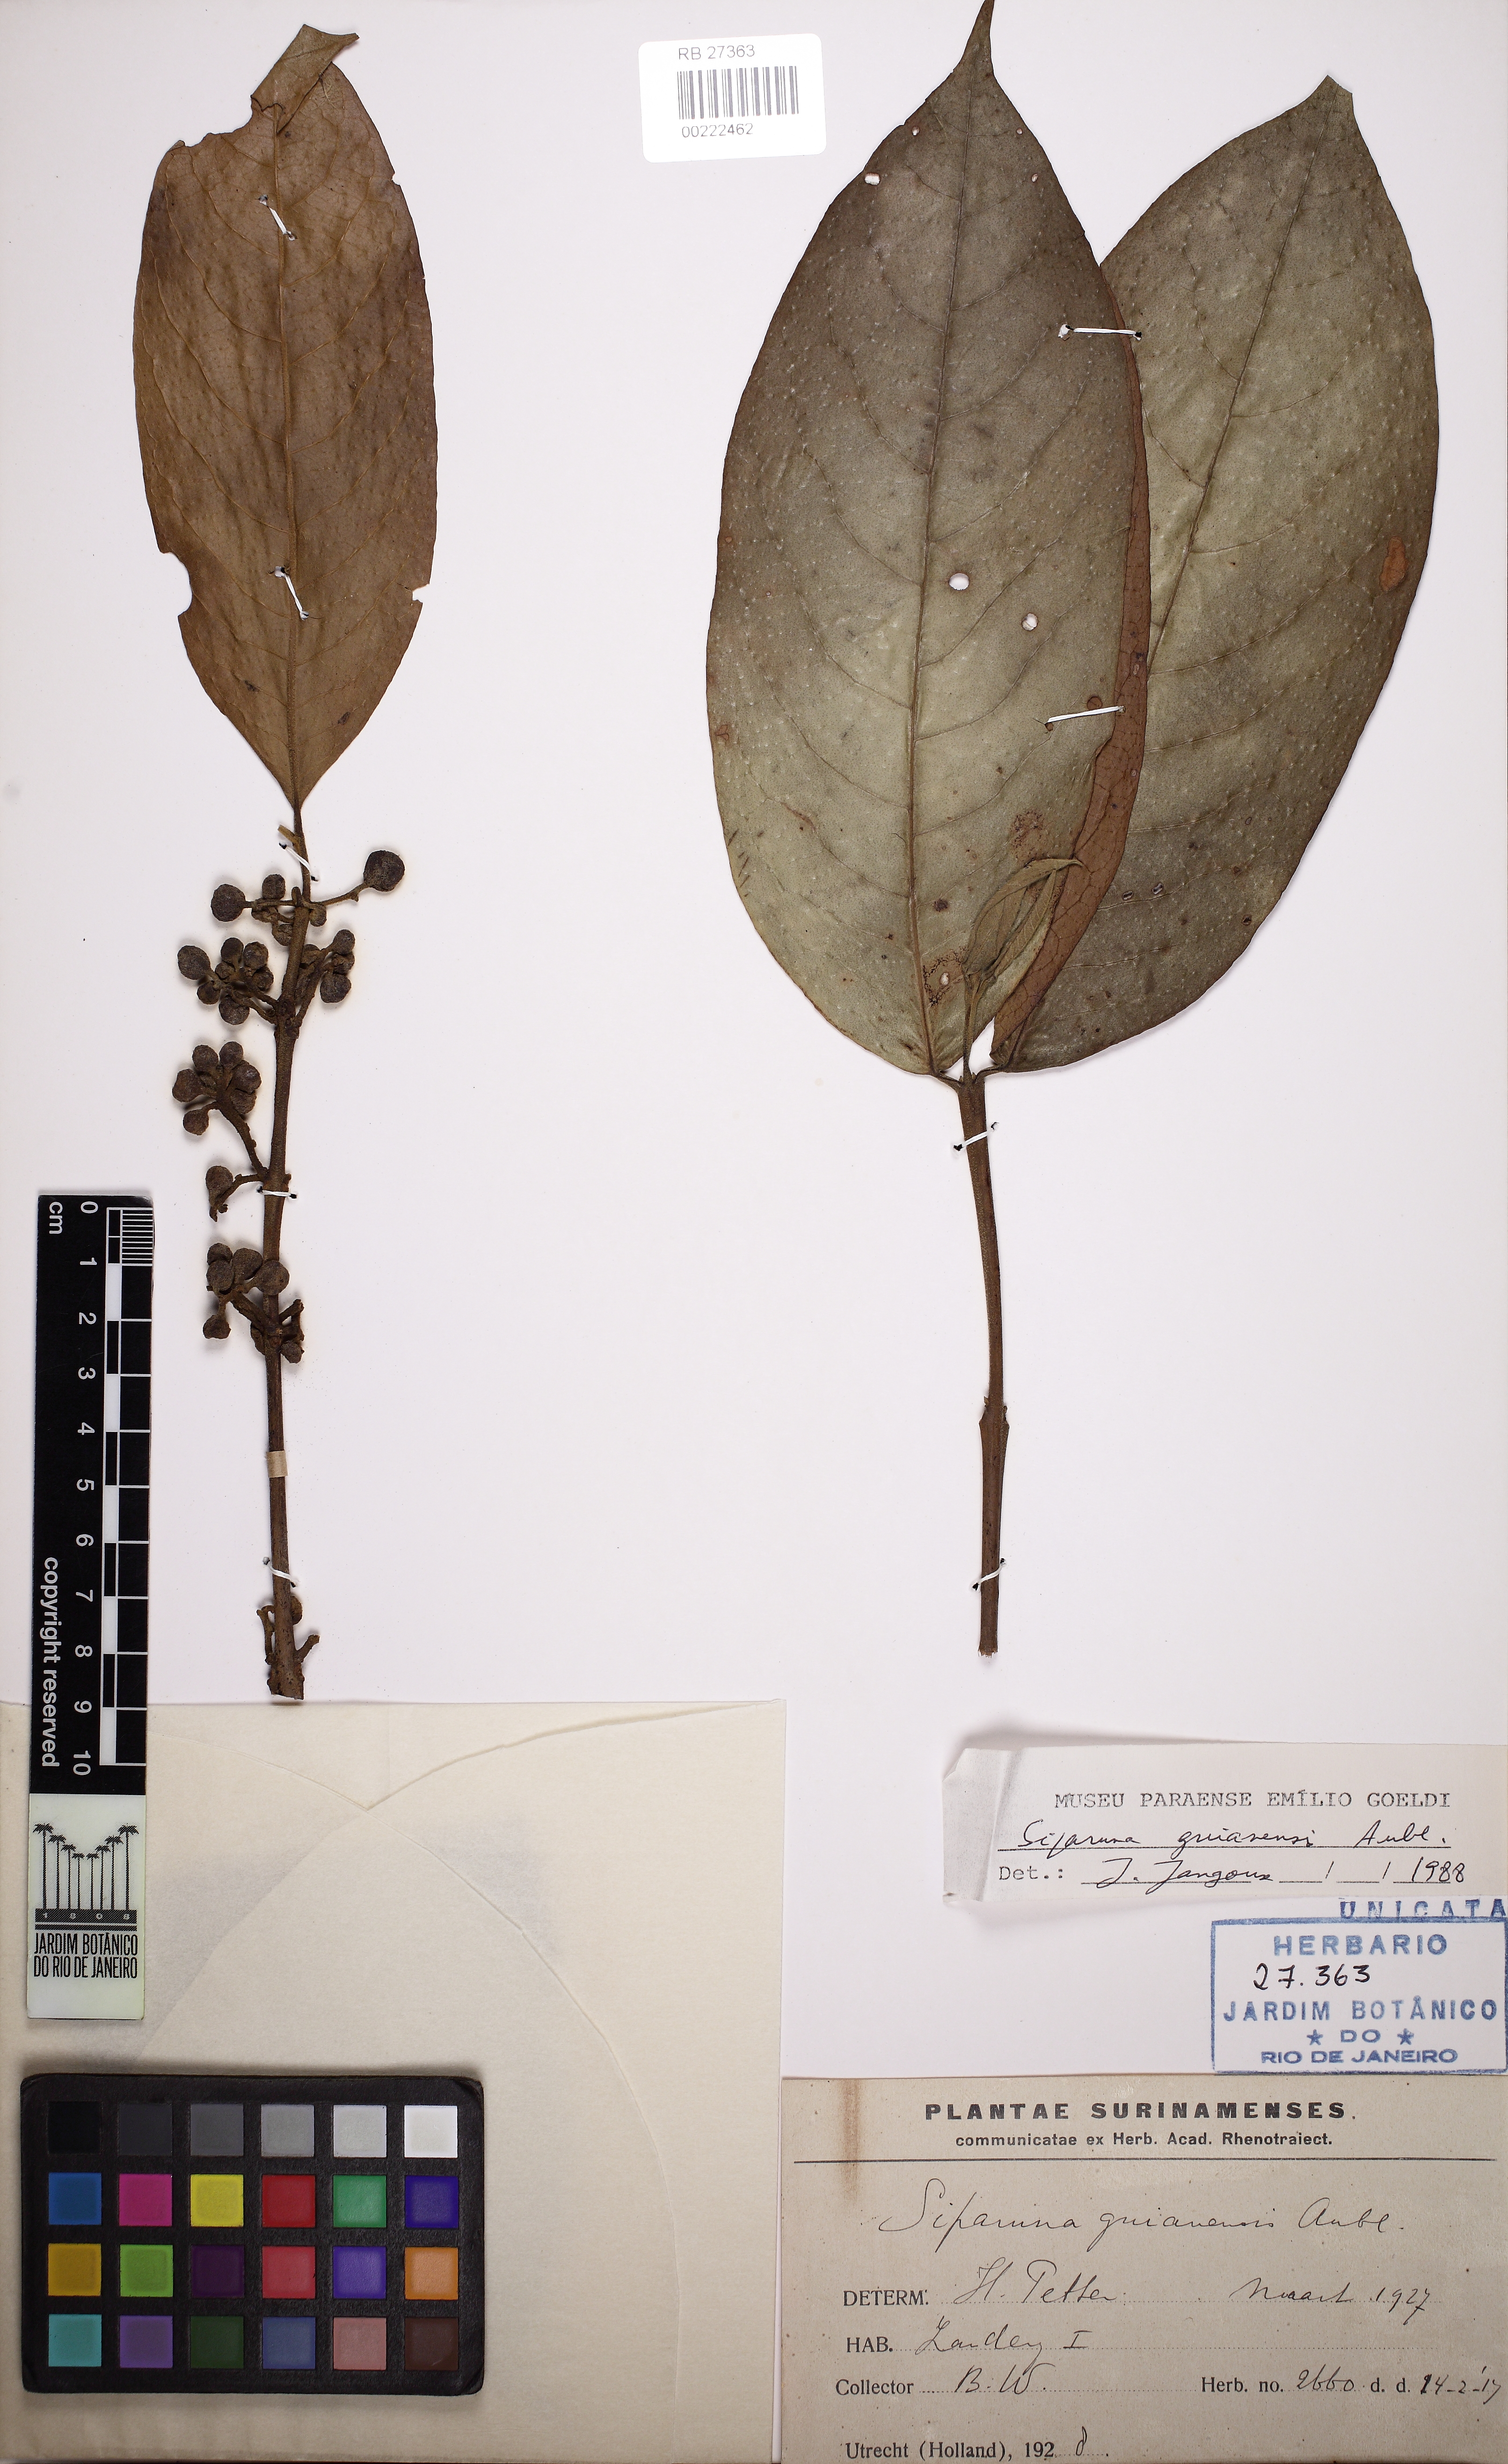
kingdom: Plantae
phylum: Tracheophyta
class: Magnoliopsida
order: Laurales
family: Siparunaceae
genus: Siparuna
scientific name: Siparuna guianensis
